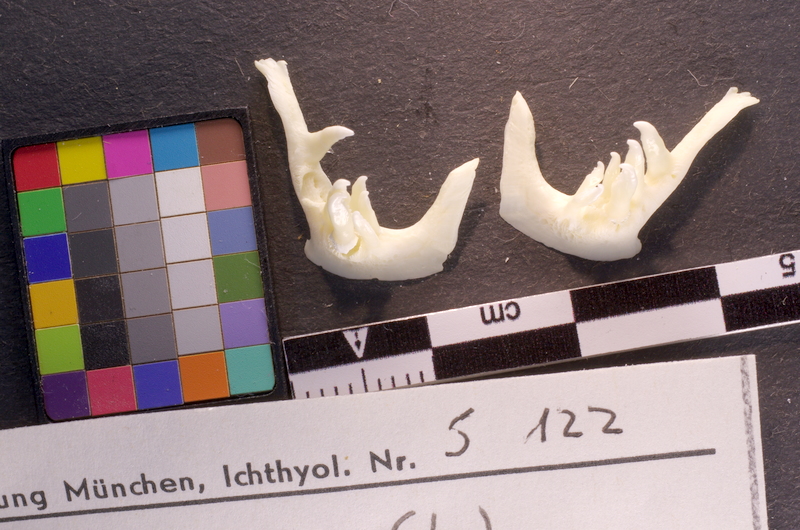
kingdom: Animalia
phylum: Chordata
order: Cypriniformes
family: Cyprinidae
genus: Squalius
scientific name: Squalius cephalus
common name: Chub
